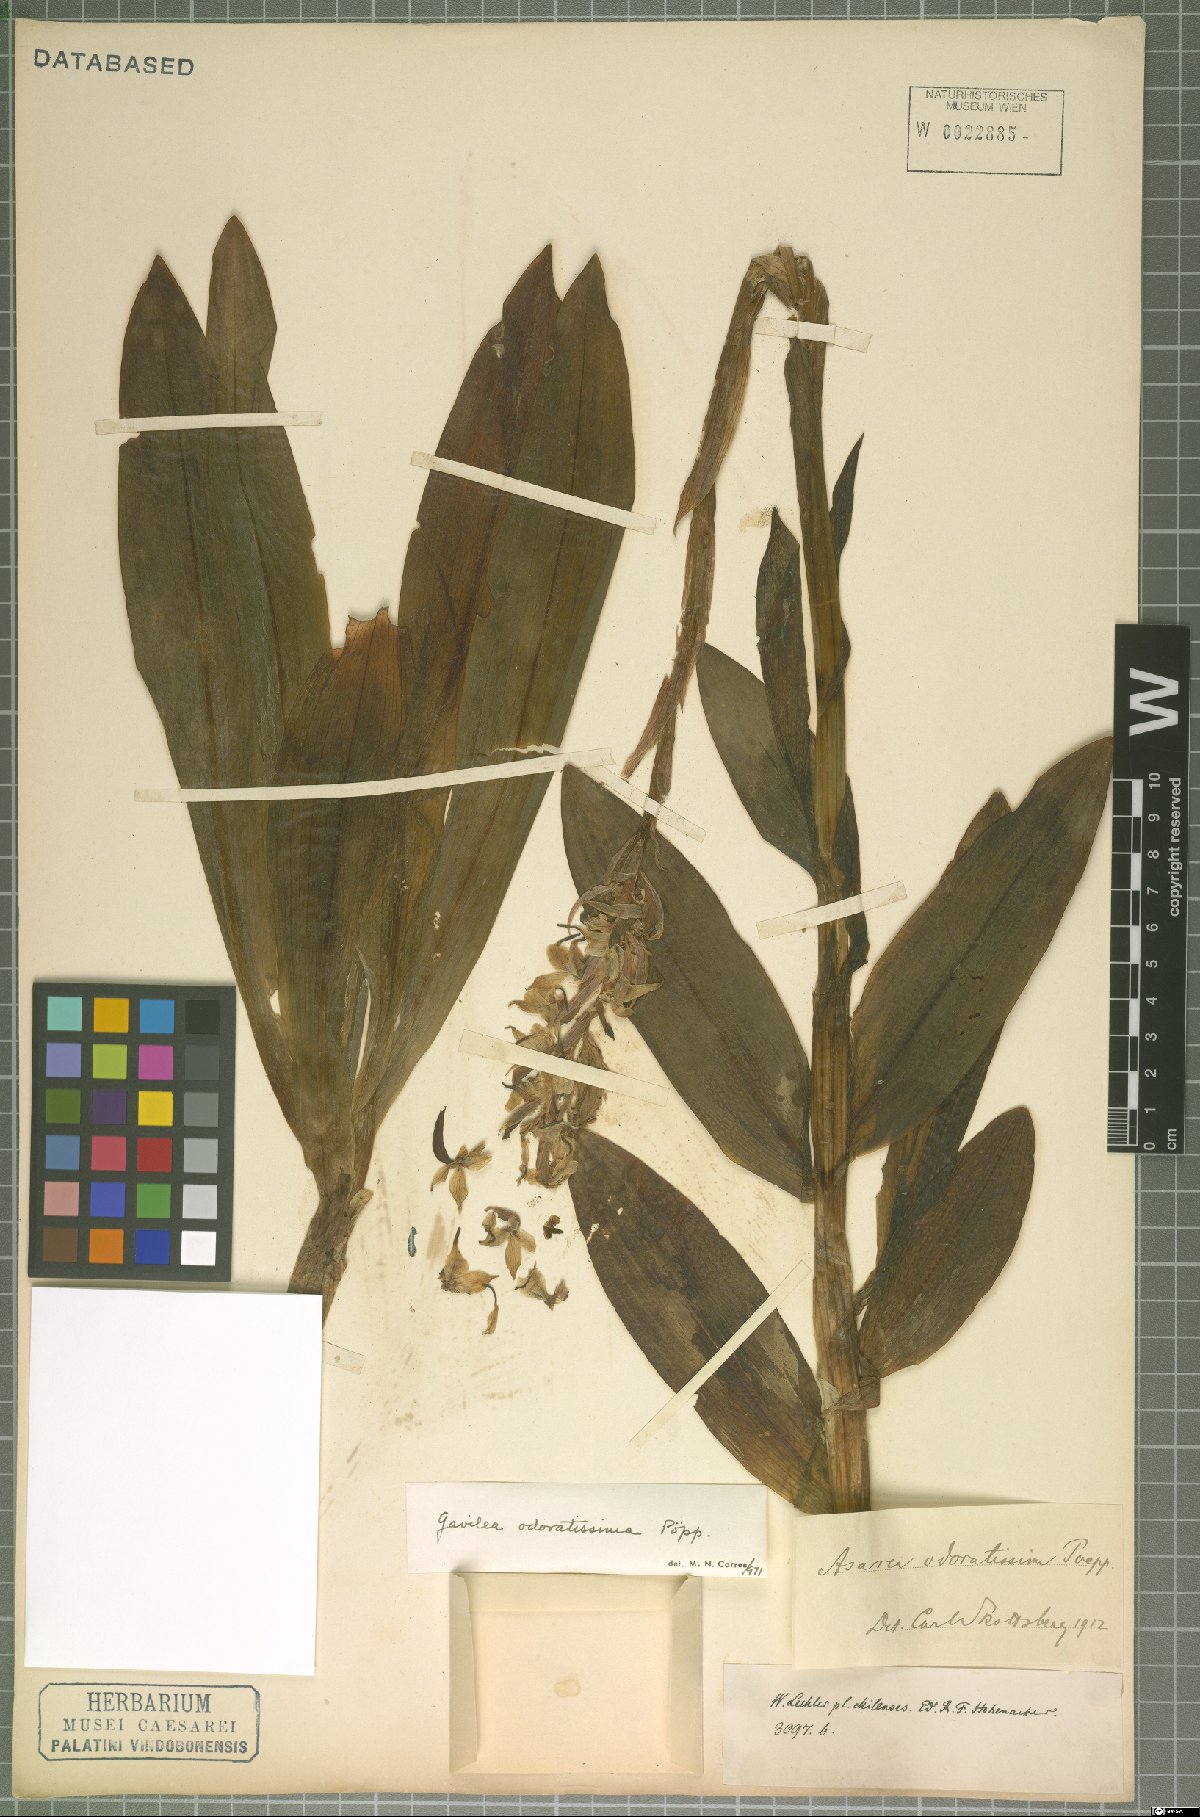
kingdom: Plantae
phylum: Tracheophyta
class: Liliopsida
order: Asparagales
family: Orchidaceae
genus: Gavilea
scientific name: Gavilea odoratissima
